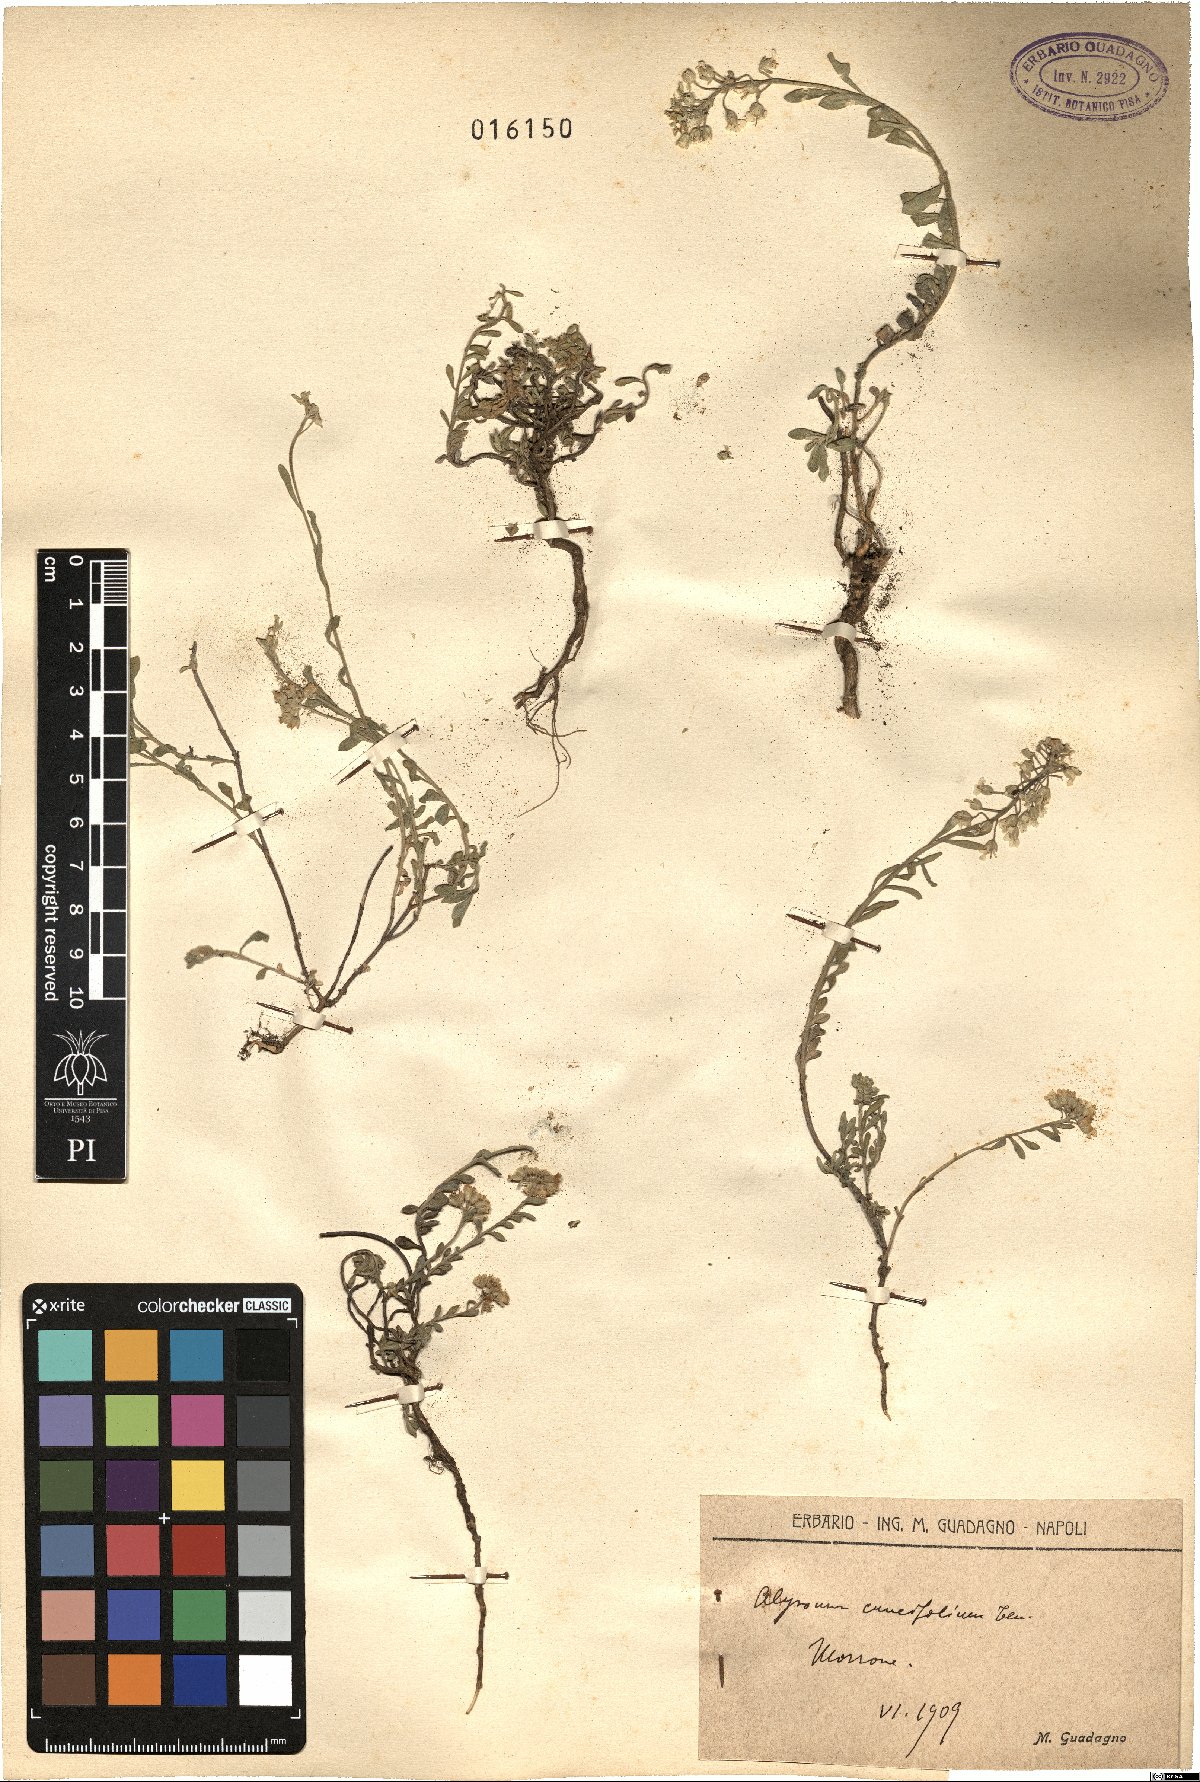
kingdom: Plantae
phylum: Tracheophyta
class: Magnoliopsida
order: Brassicales
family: Brassicaceae
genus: Alyssum
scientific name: Alyssum cuneifolium
